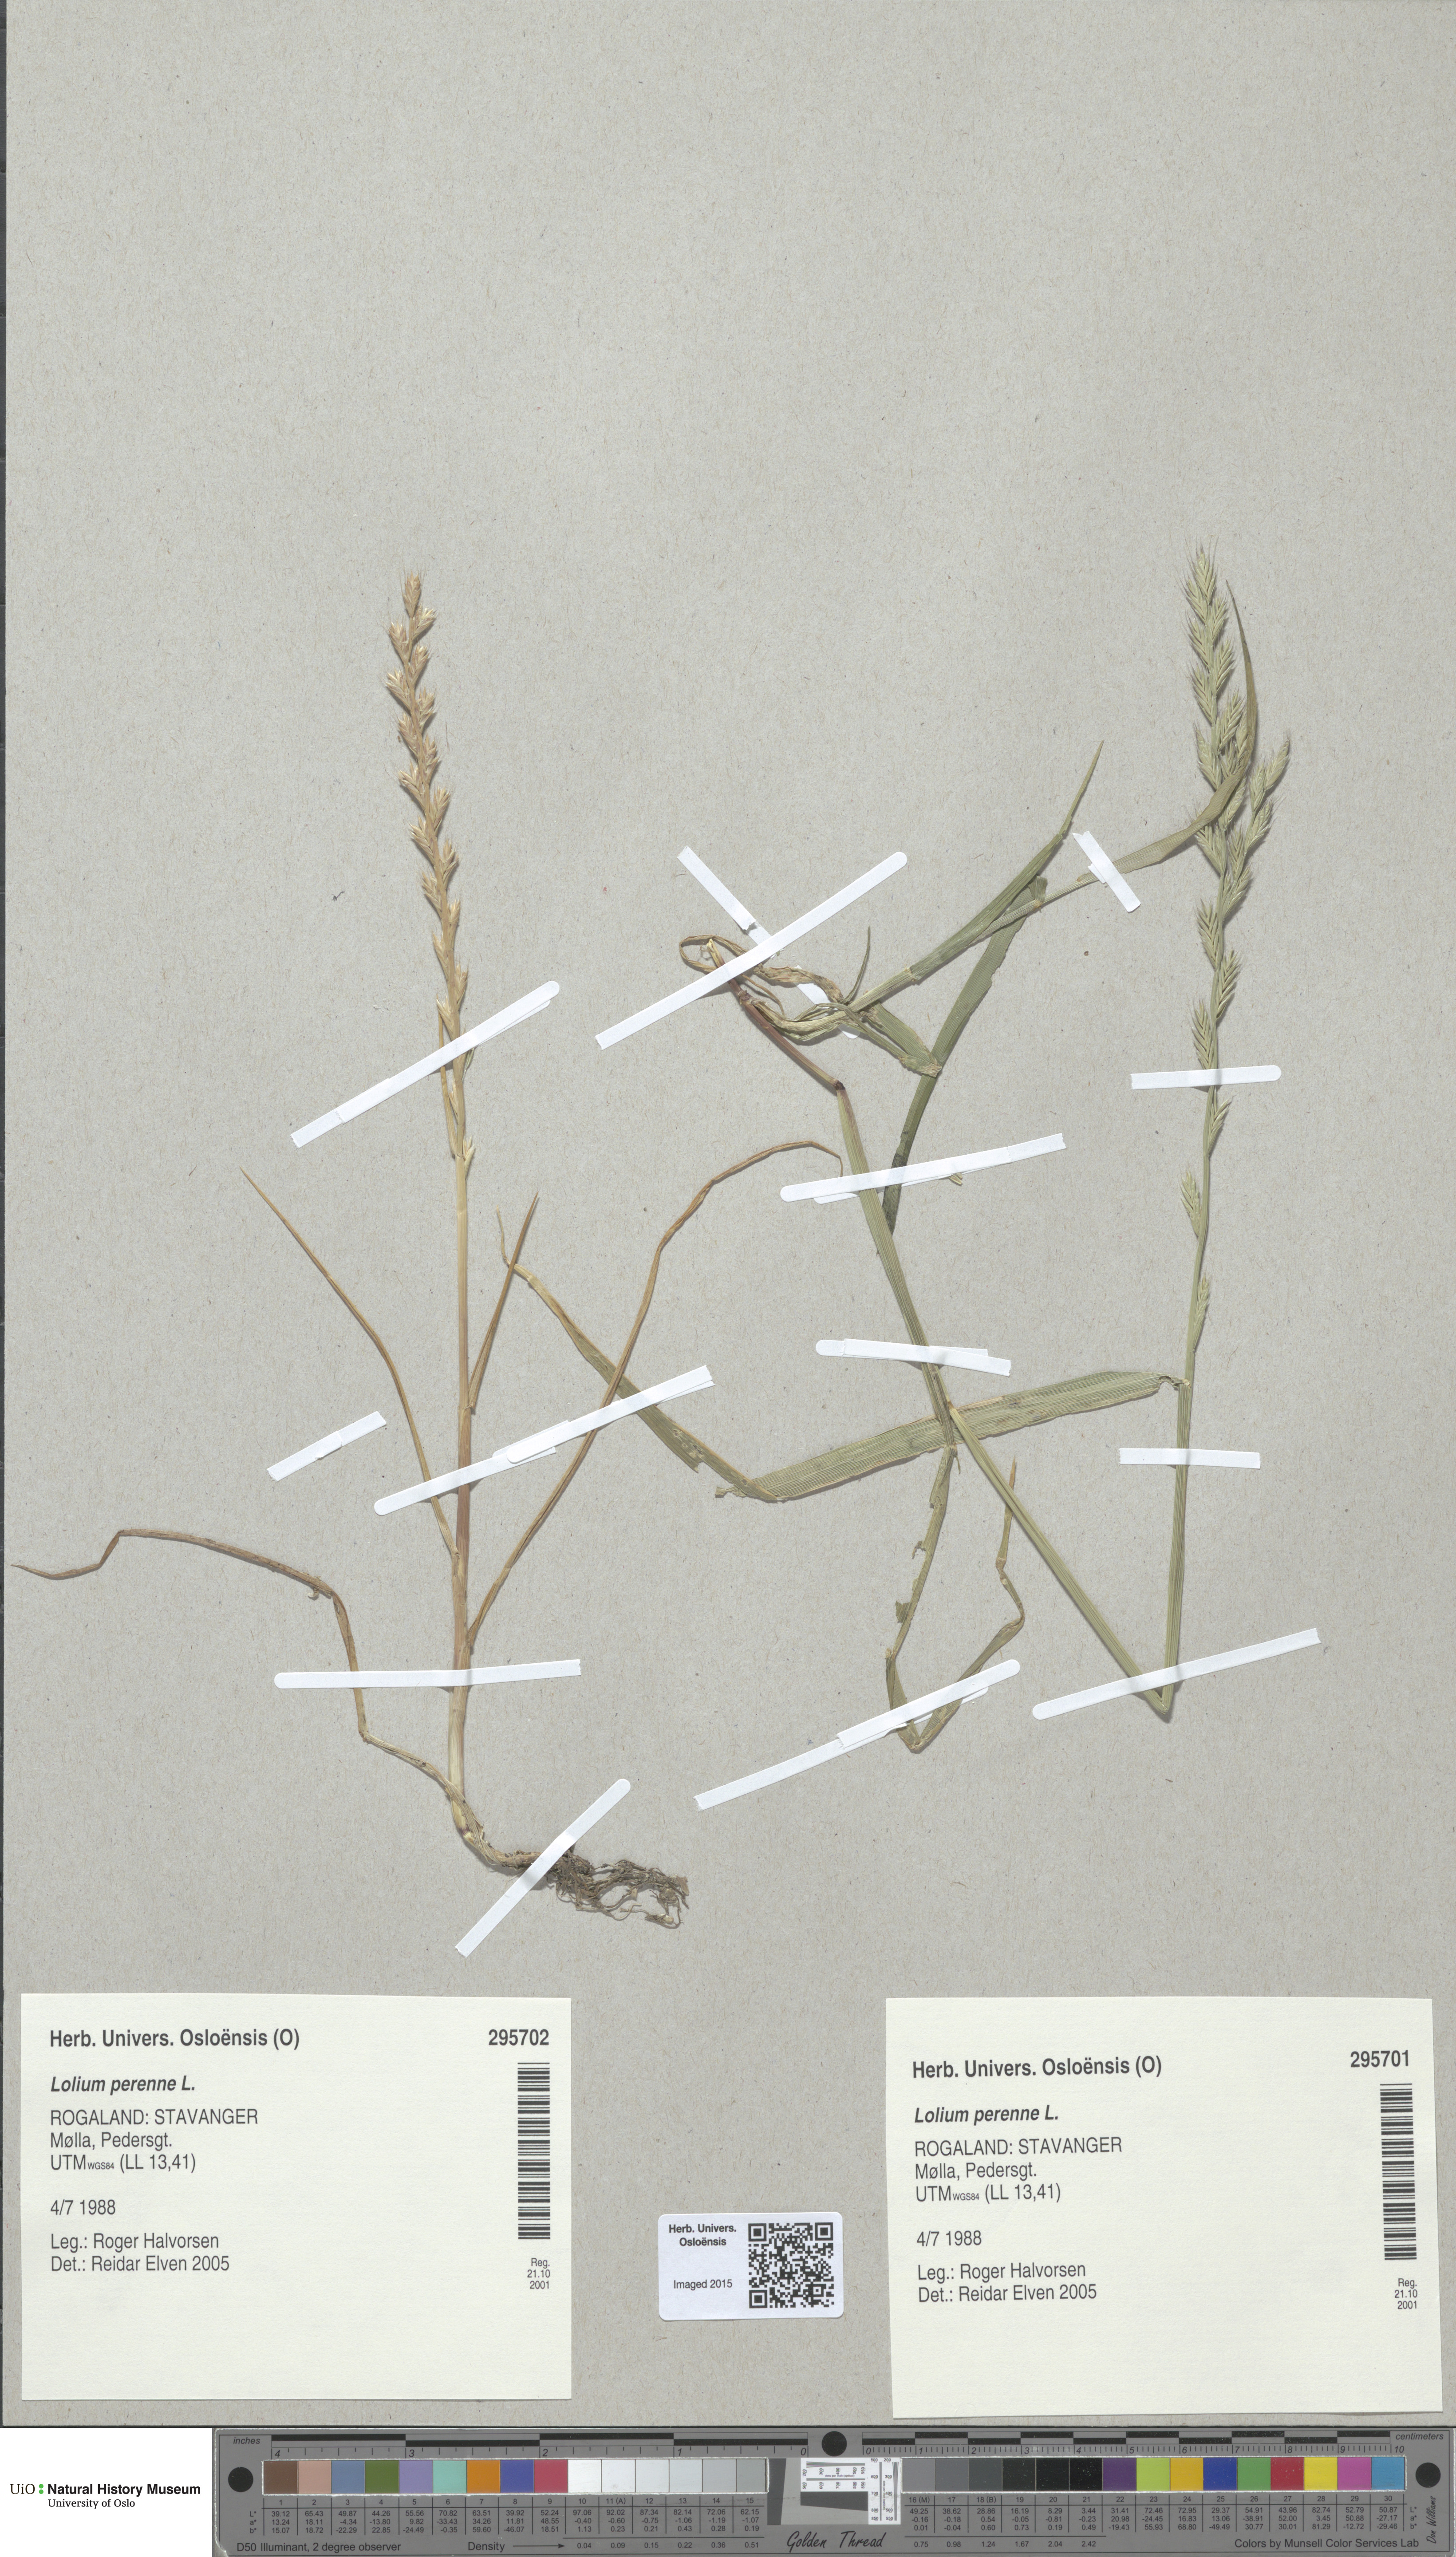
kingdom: Plantae
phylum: Tracheophyta
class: Liliopsida
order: Poales
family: Poaceae
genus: Lolium
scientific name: Lolium perenne
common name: Perennial ryegrass
